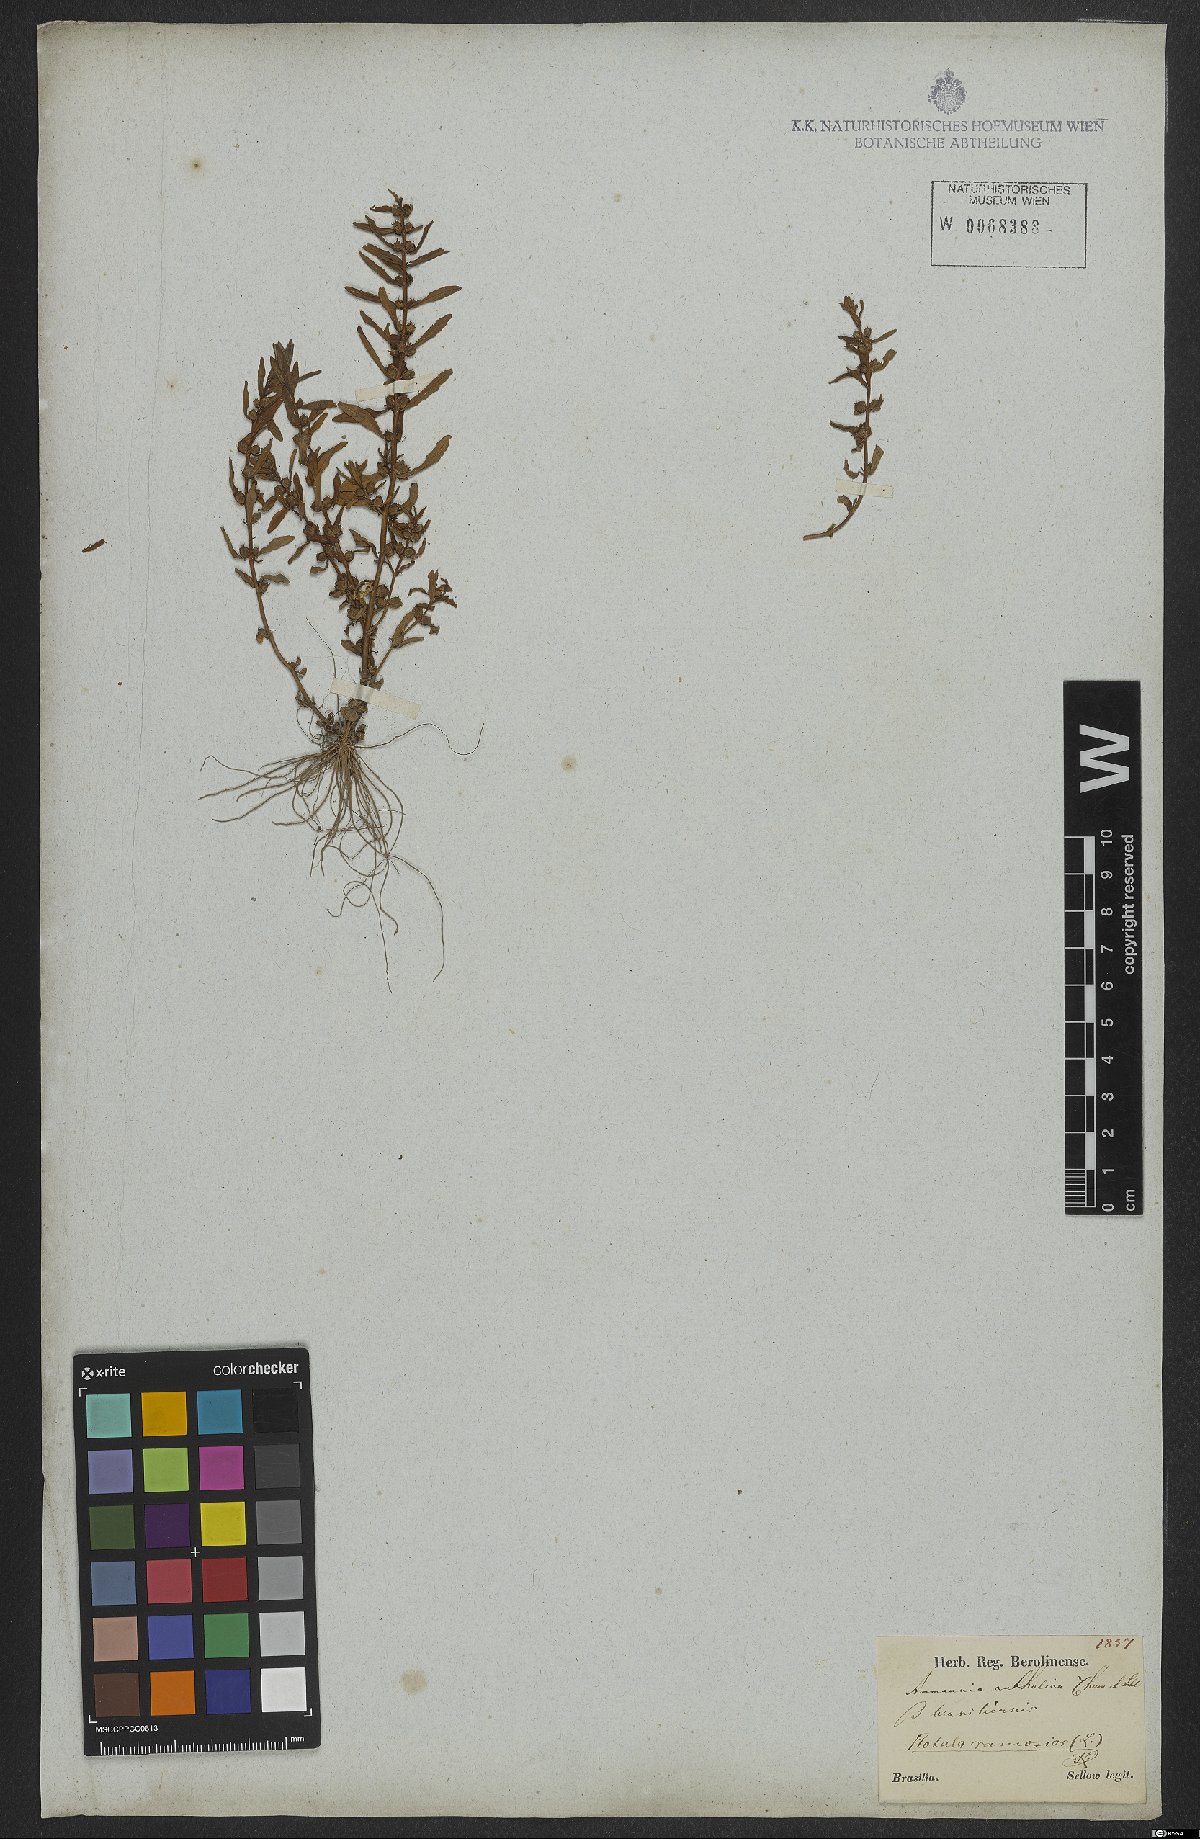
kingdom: Plantae
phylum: Tracheophyta
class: Magnoliopsida
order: Myrtales
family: Lythraceae
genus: Rotala
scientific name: Rotala ramosior
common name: Lowland rotala
